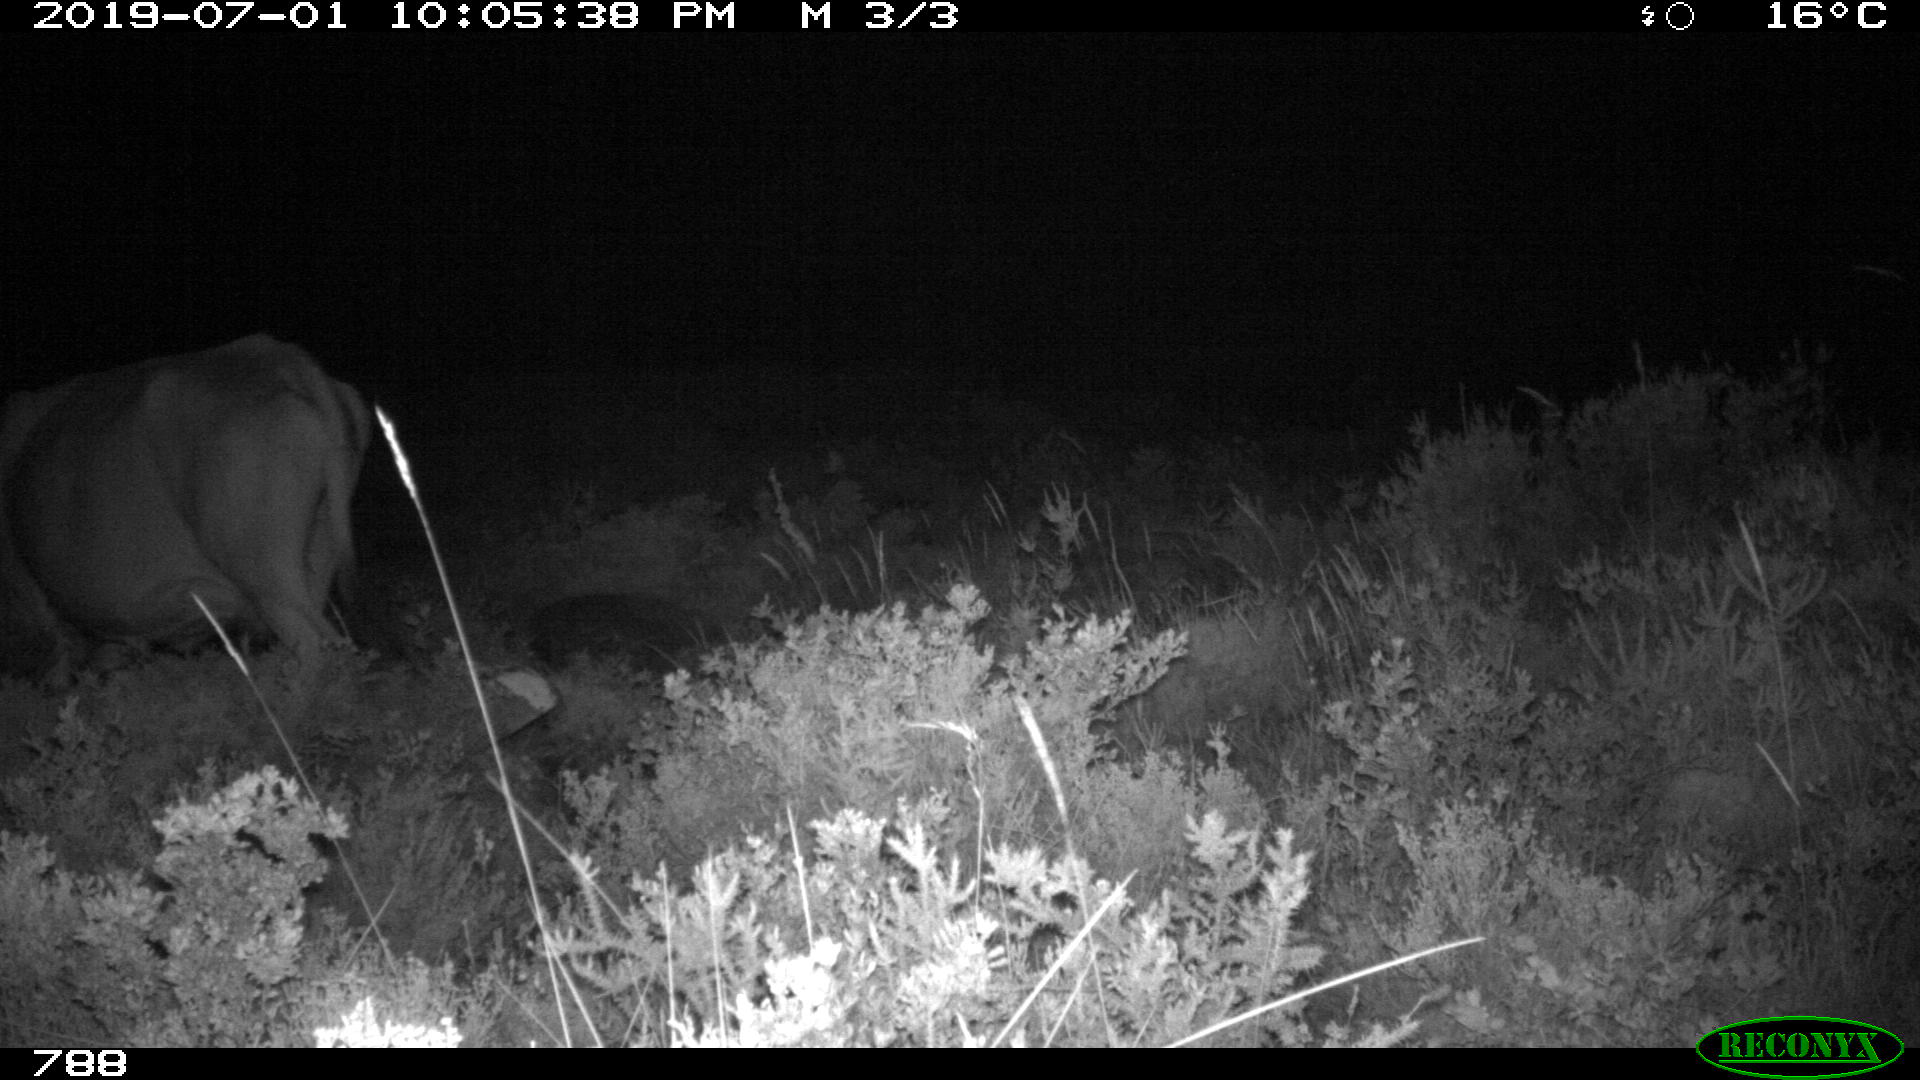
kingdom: Animalia
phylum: Chordata
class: Mammalia
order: Artiodactyla
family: Bovidae
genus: Bos
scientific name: Bos taurus
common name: Domesticated cattle
